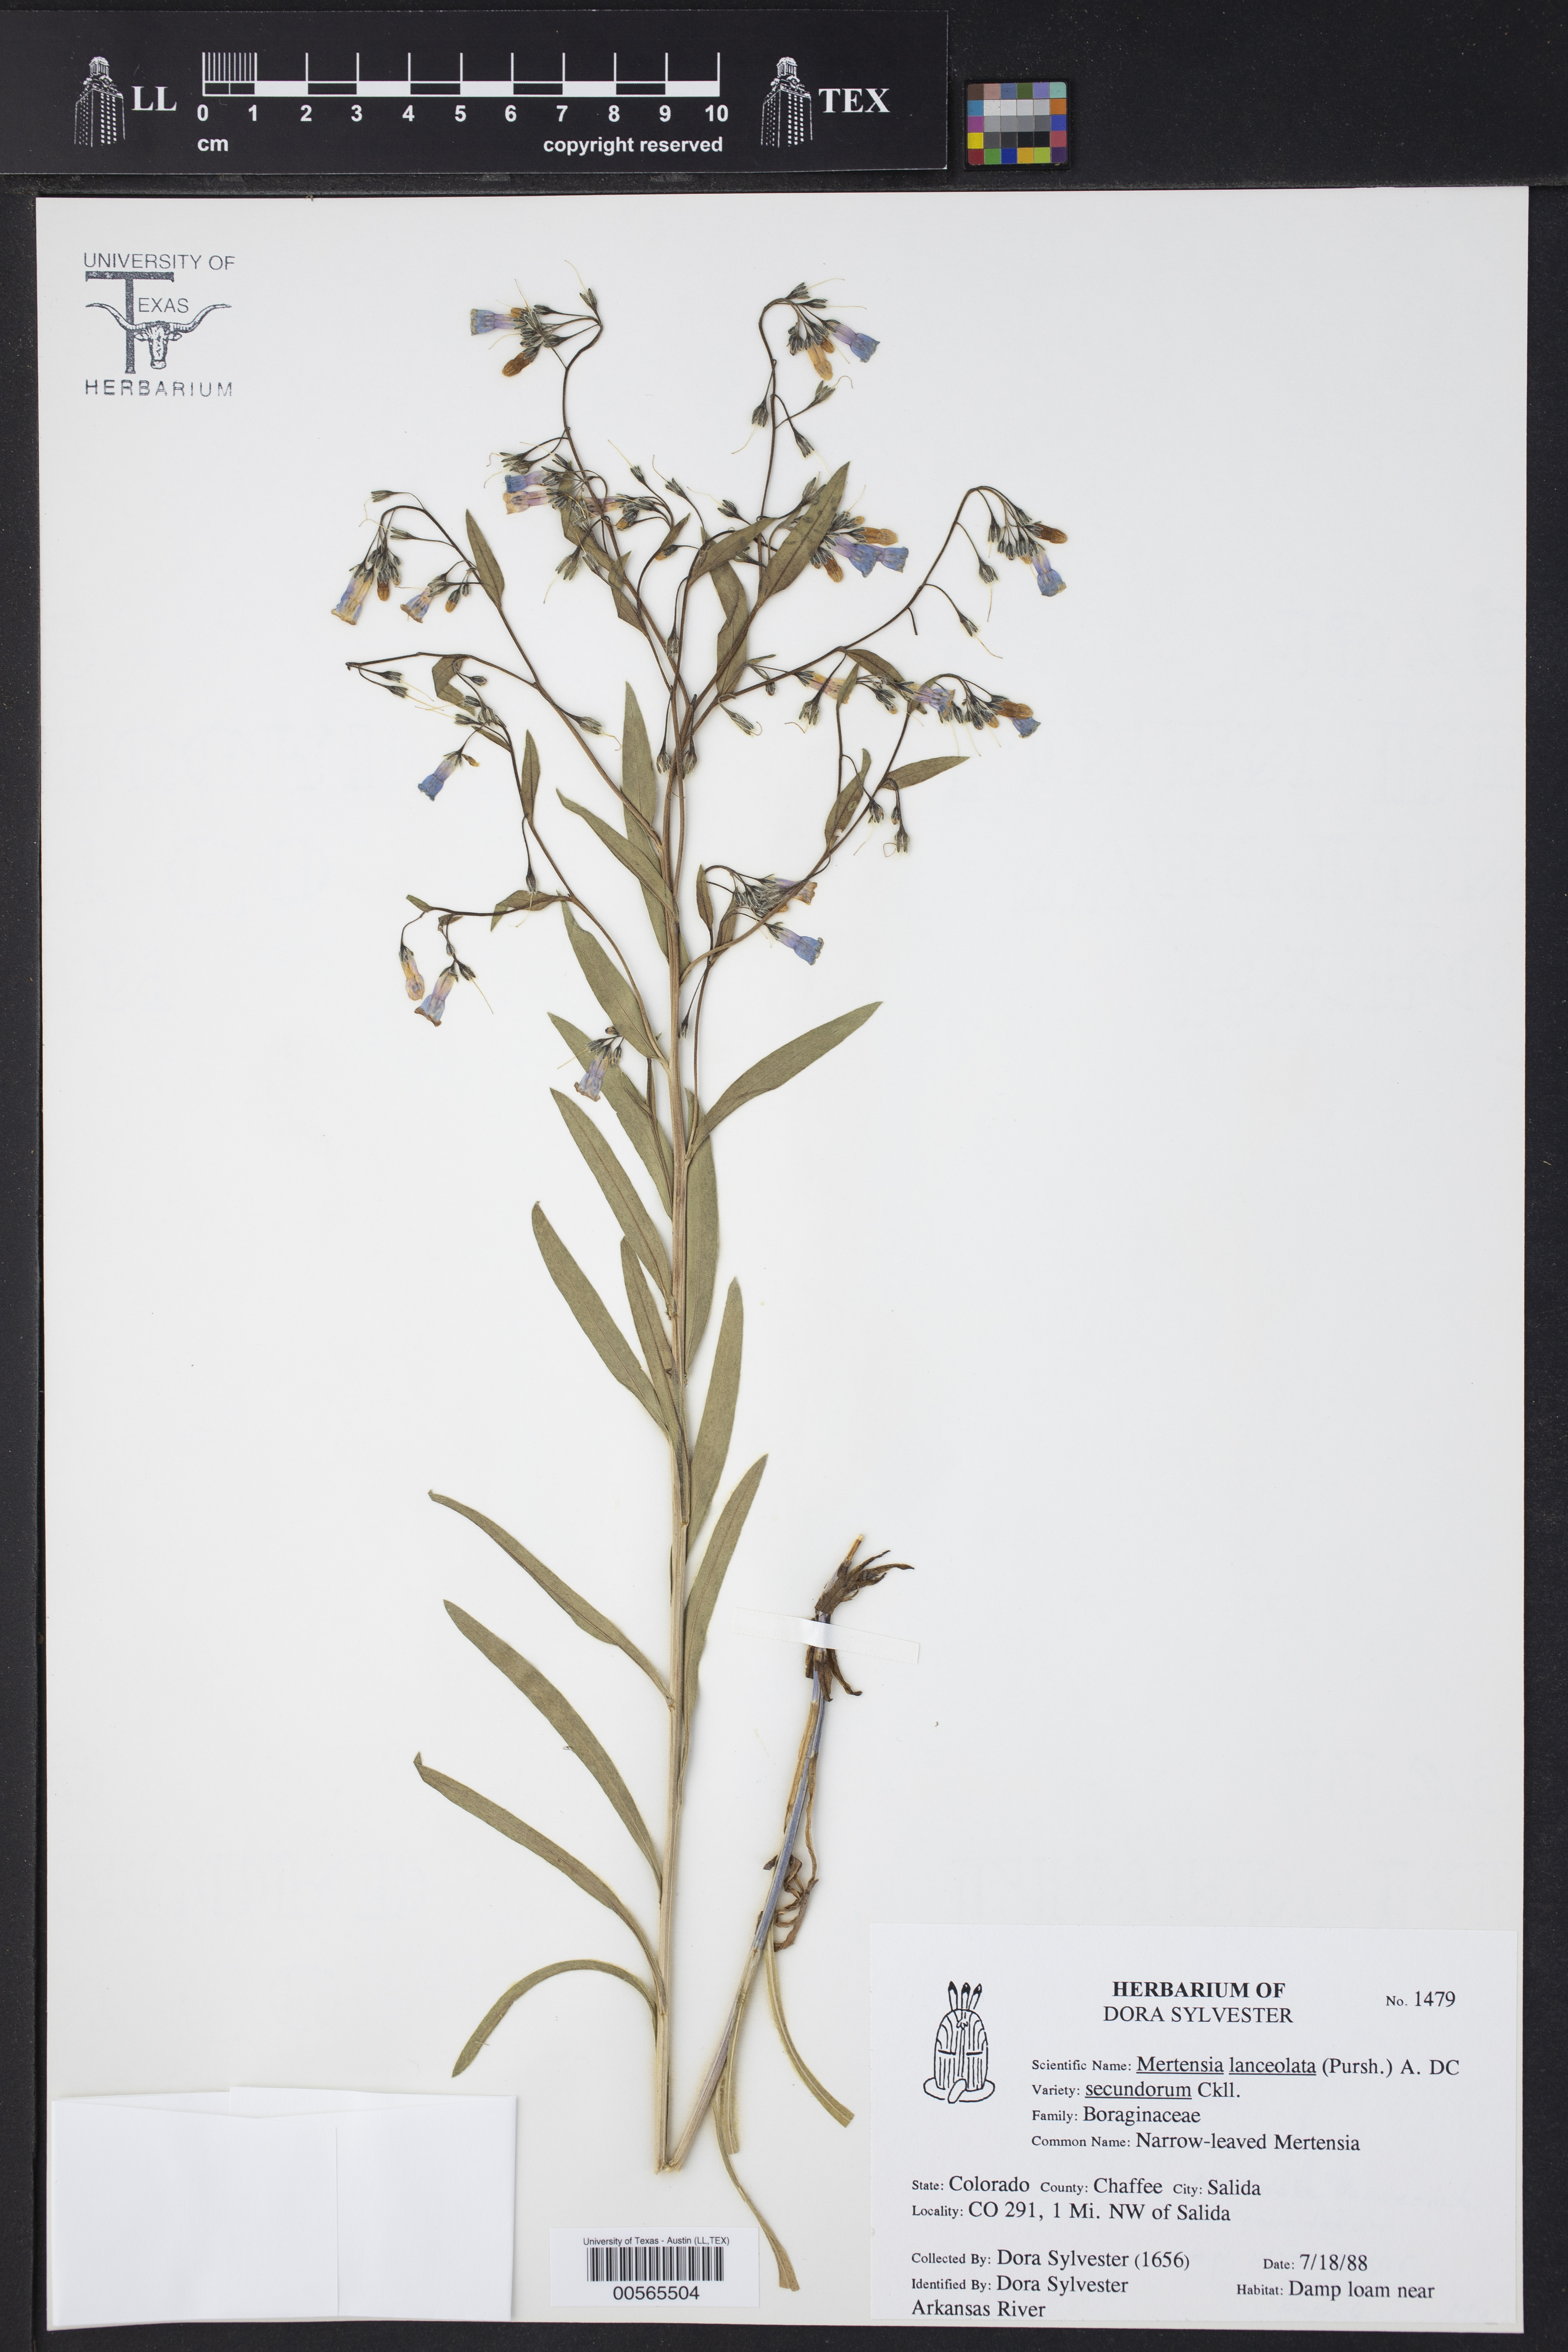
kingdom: Plantae
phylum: Tracheophyta
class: Magnoliopsida
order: Boraginales
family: Boraginaceae
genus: Mertensia
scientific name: Mertensia lanceolata
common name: Lance-leaved bluebells
